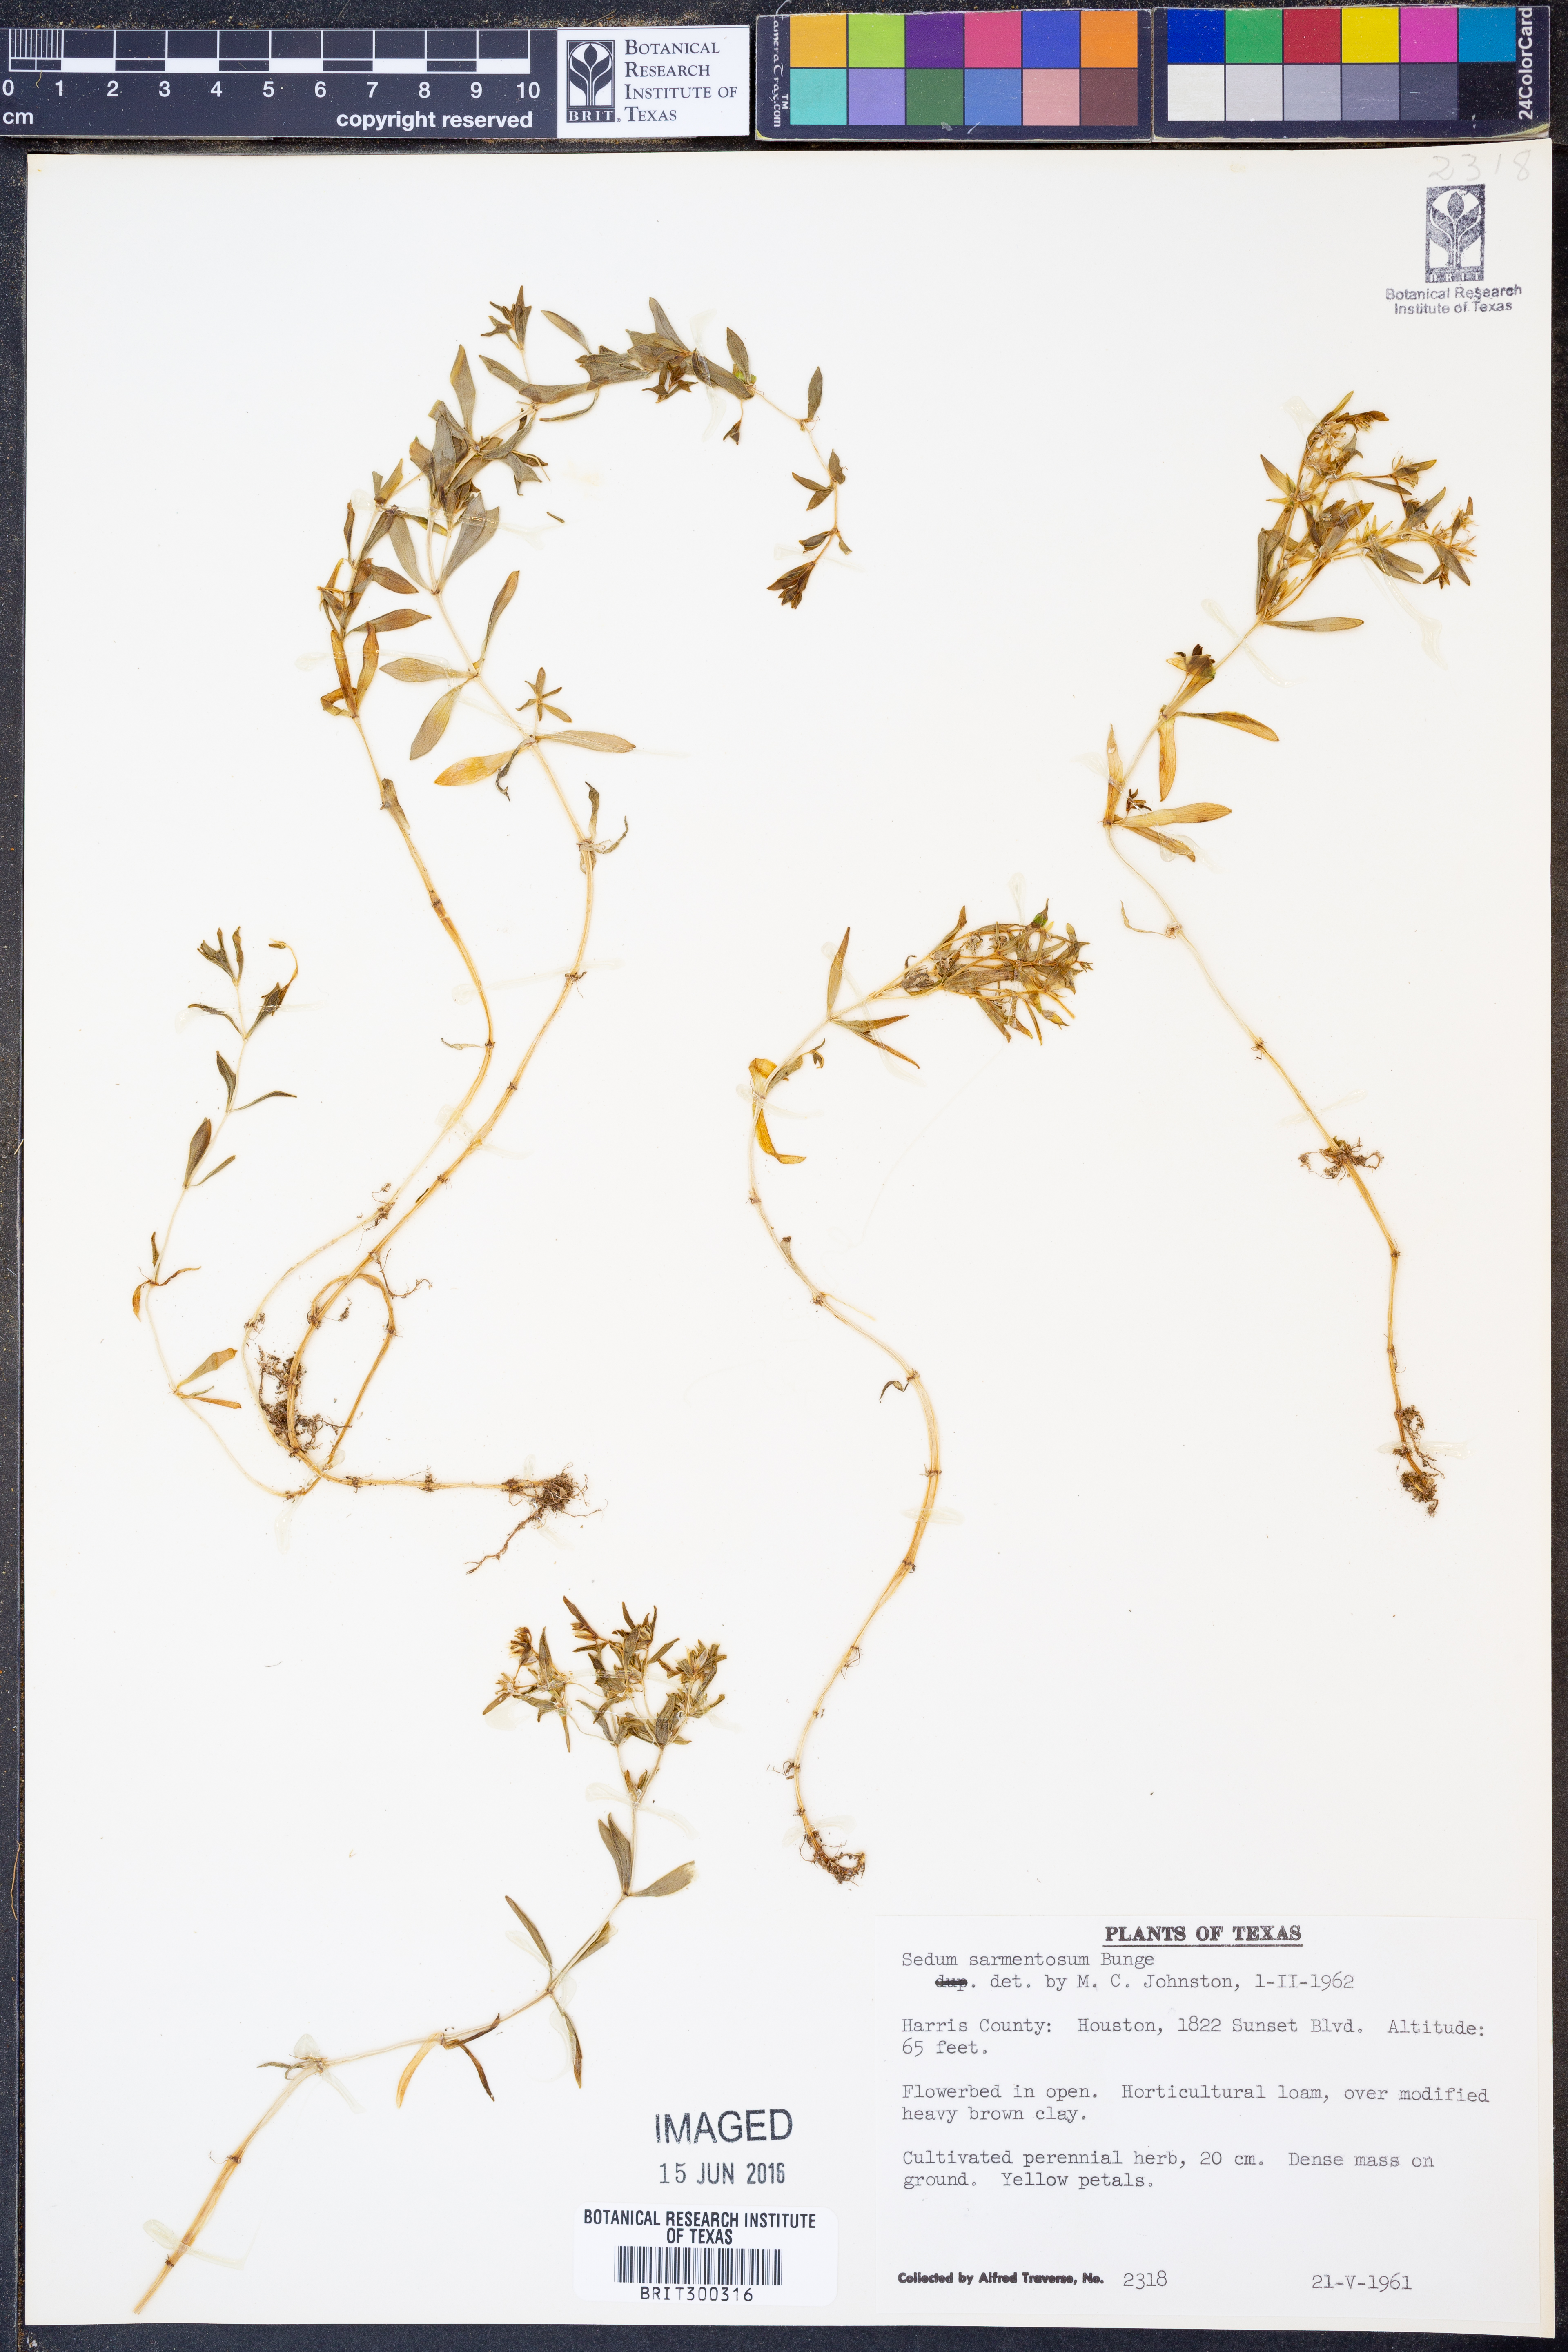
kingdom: Plantae
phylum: Tracheophyta
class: Magnoliopsida
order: Saxifragales
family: Crassulaceae
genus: Sedum
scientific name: Sedum sarmentosum
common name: Stringy stonecrop
